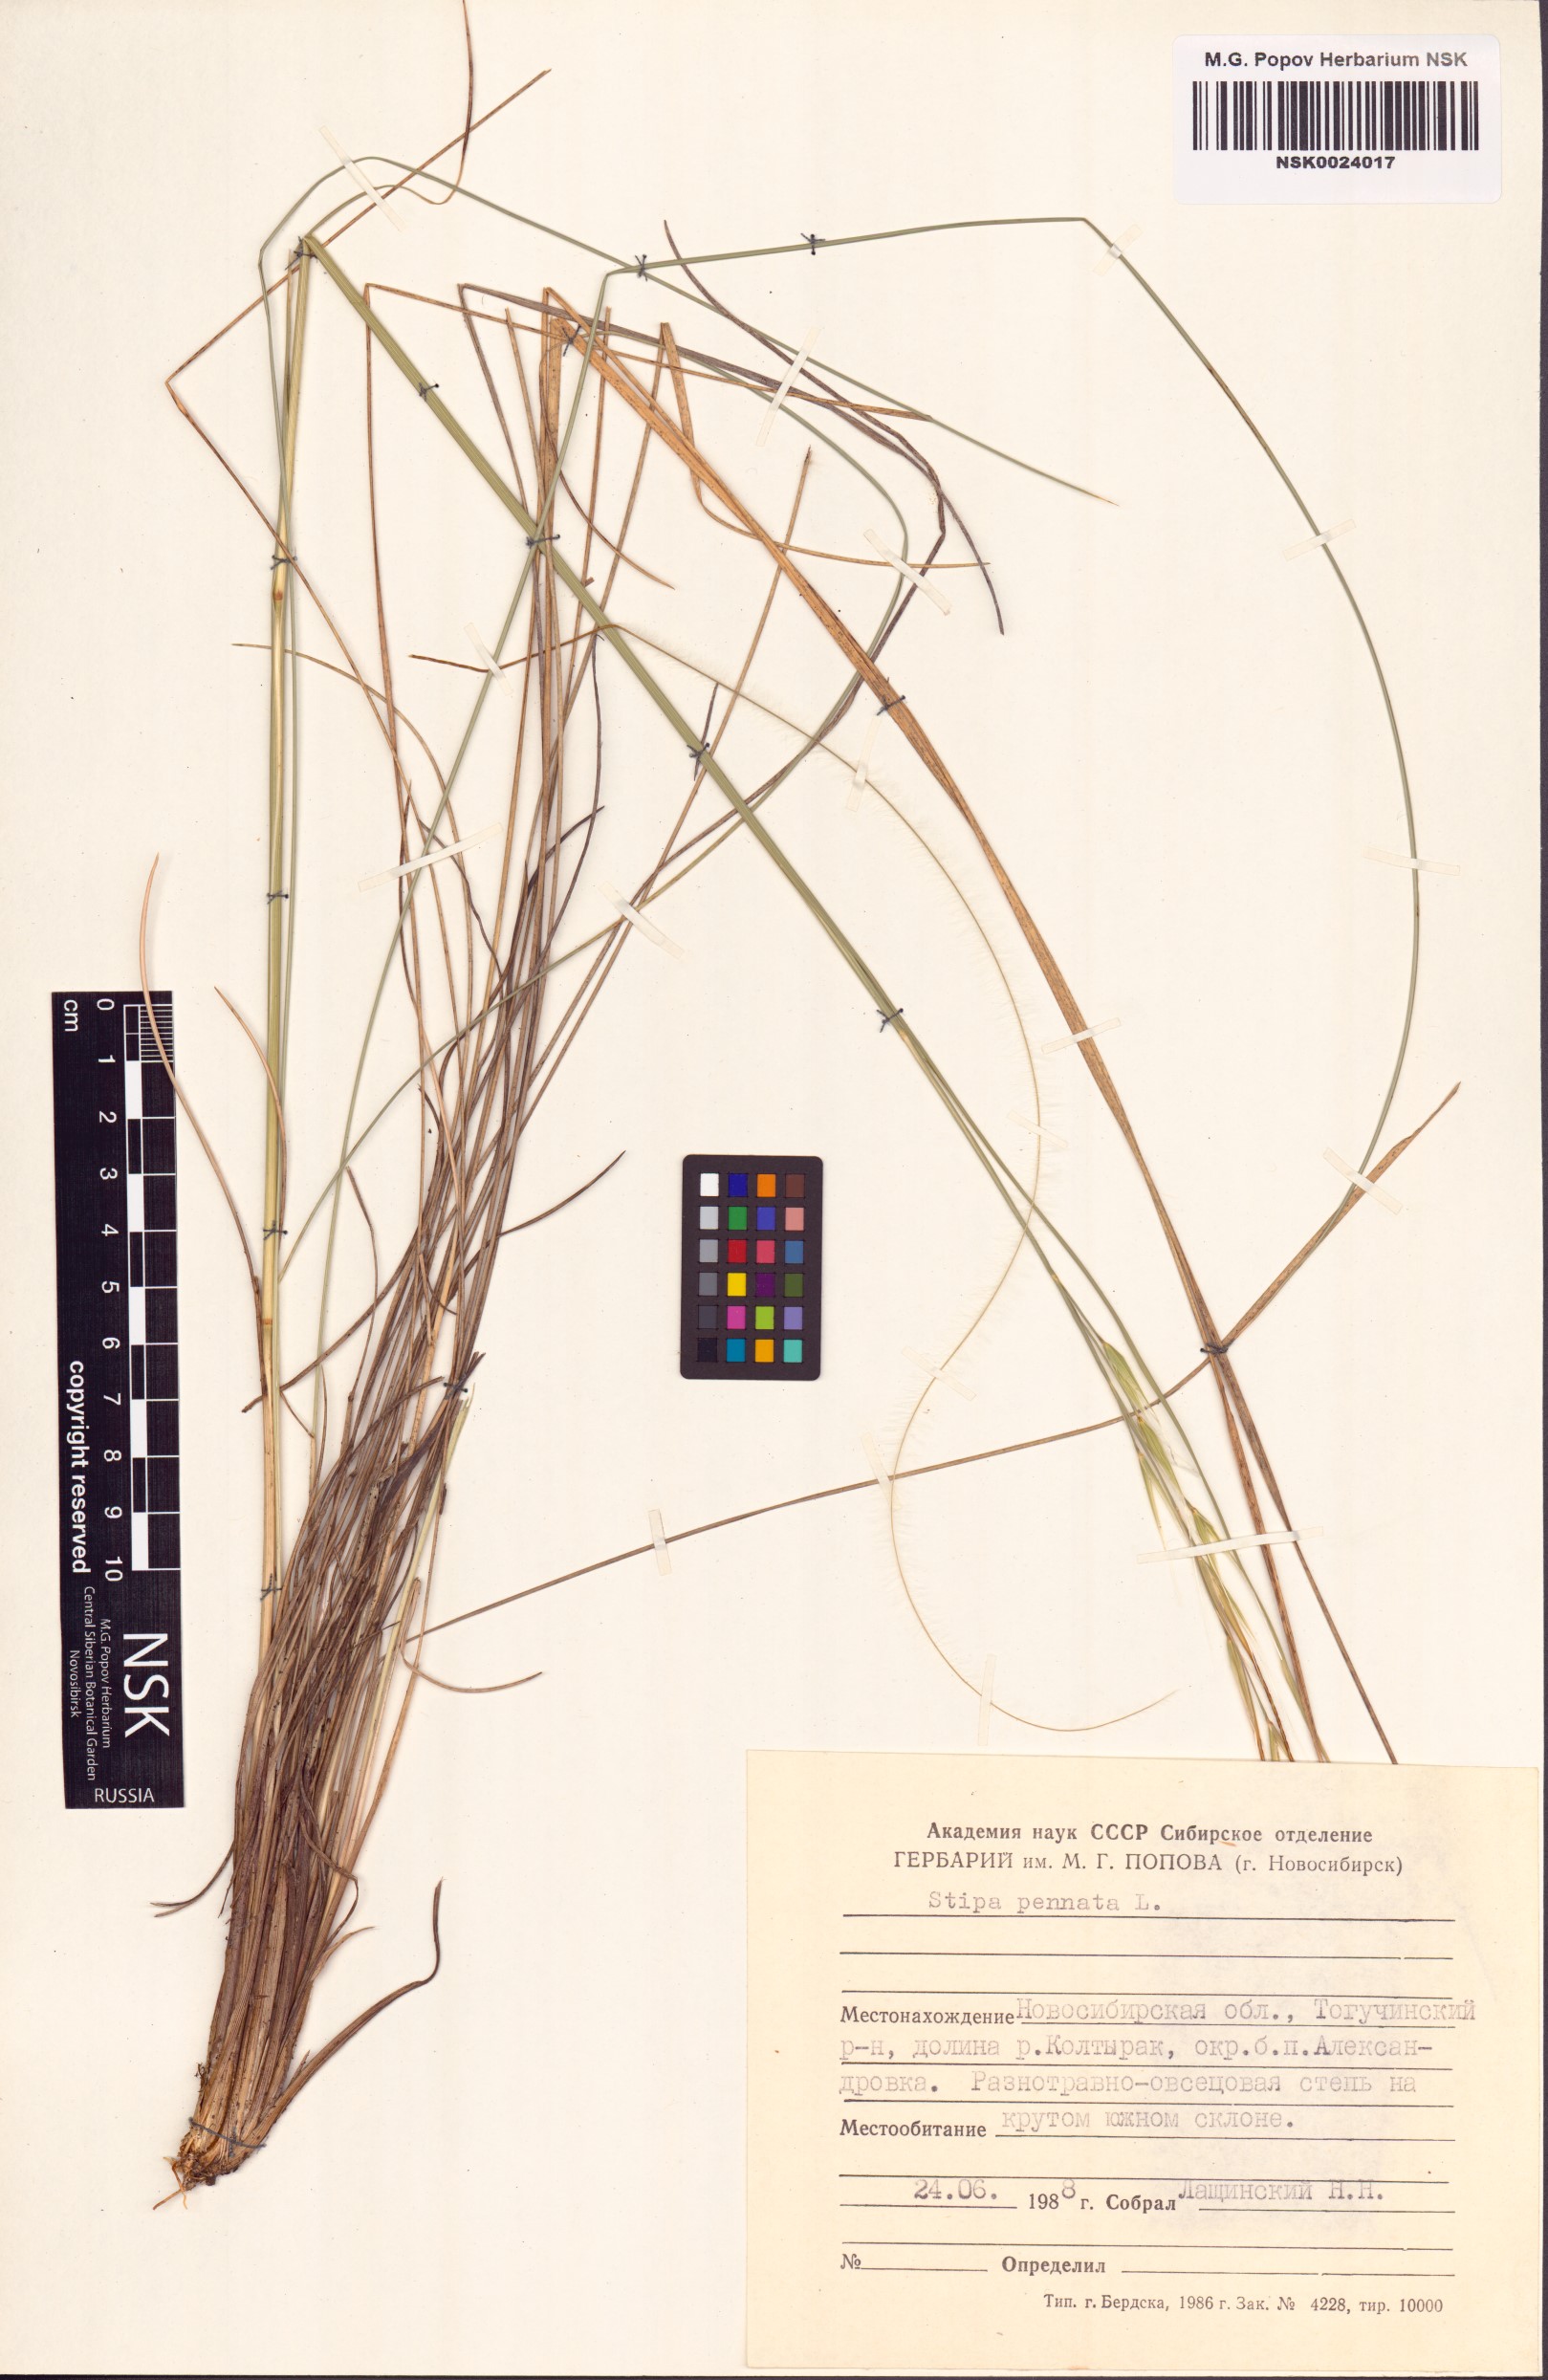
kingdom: Plantae
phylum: Tracheophyta
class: Liliopsida
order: Poales
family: Poaceae
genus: Stipa
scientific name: Stipa pennata
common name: European feather grass
